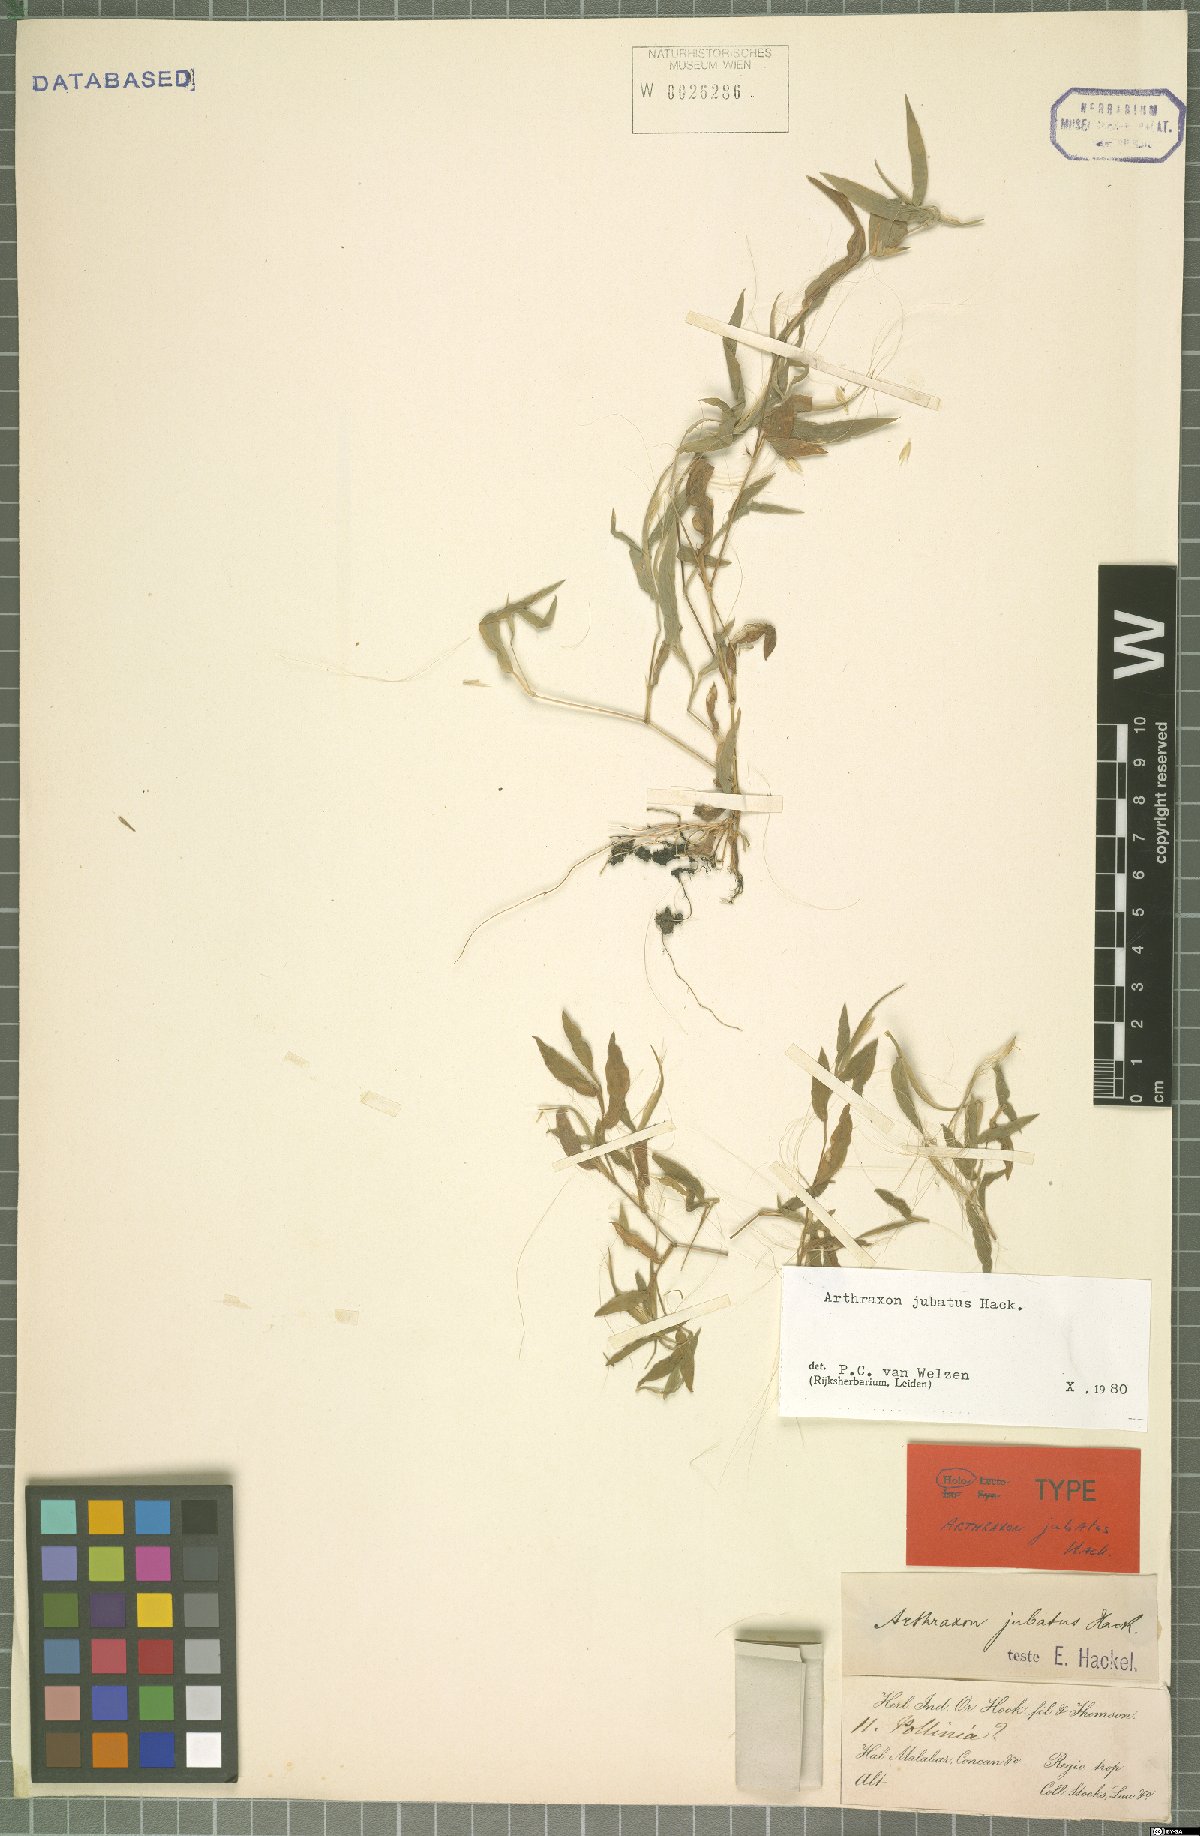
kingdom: Plantae
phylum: Tracheophyta
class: Liliopsida
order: Poales
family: Poaceae
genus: Arthraxon
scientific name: Arthraxon jubatus
